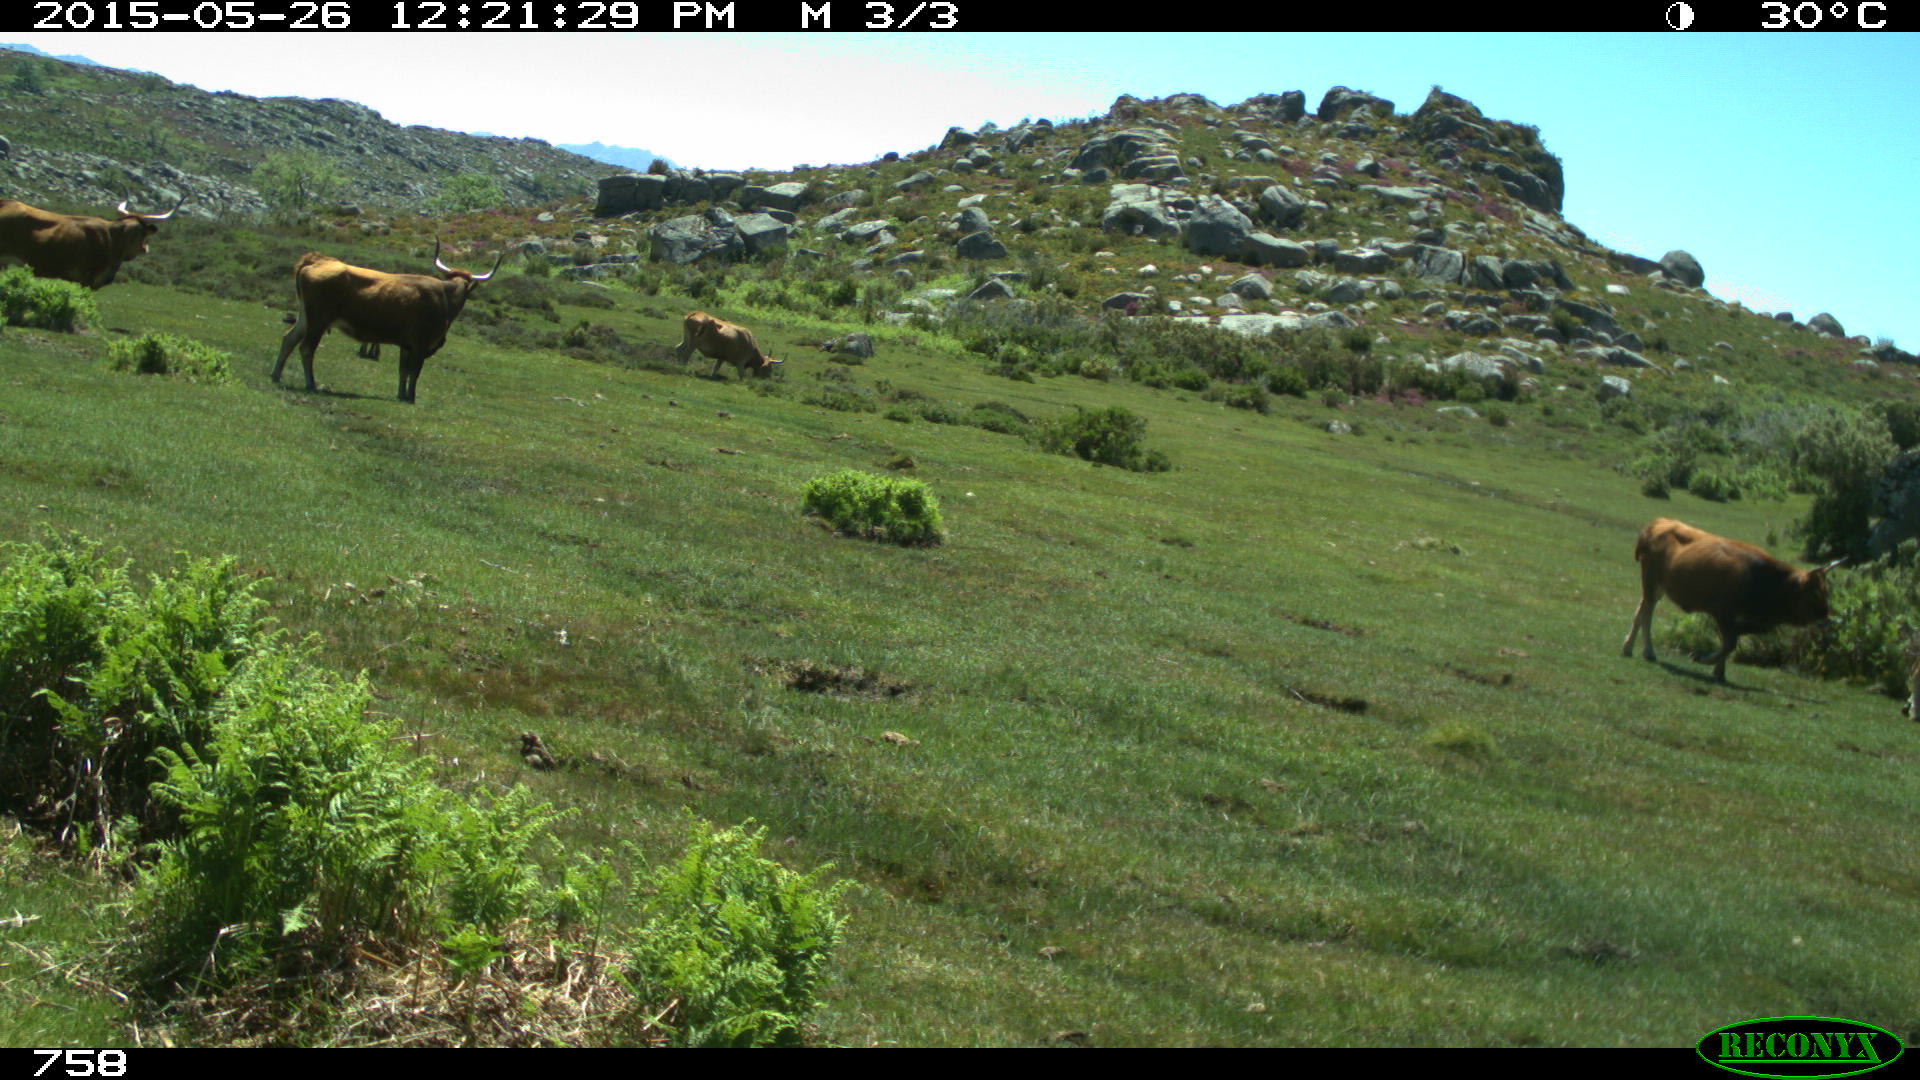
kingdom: Animalia
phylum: Chordata
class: Mammalia
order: Artiodactyla
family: Bovidae
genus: Bos
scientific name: Bos taurus
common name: Domesticated cattle
